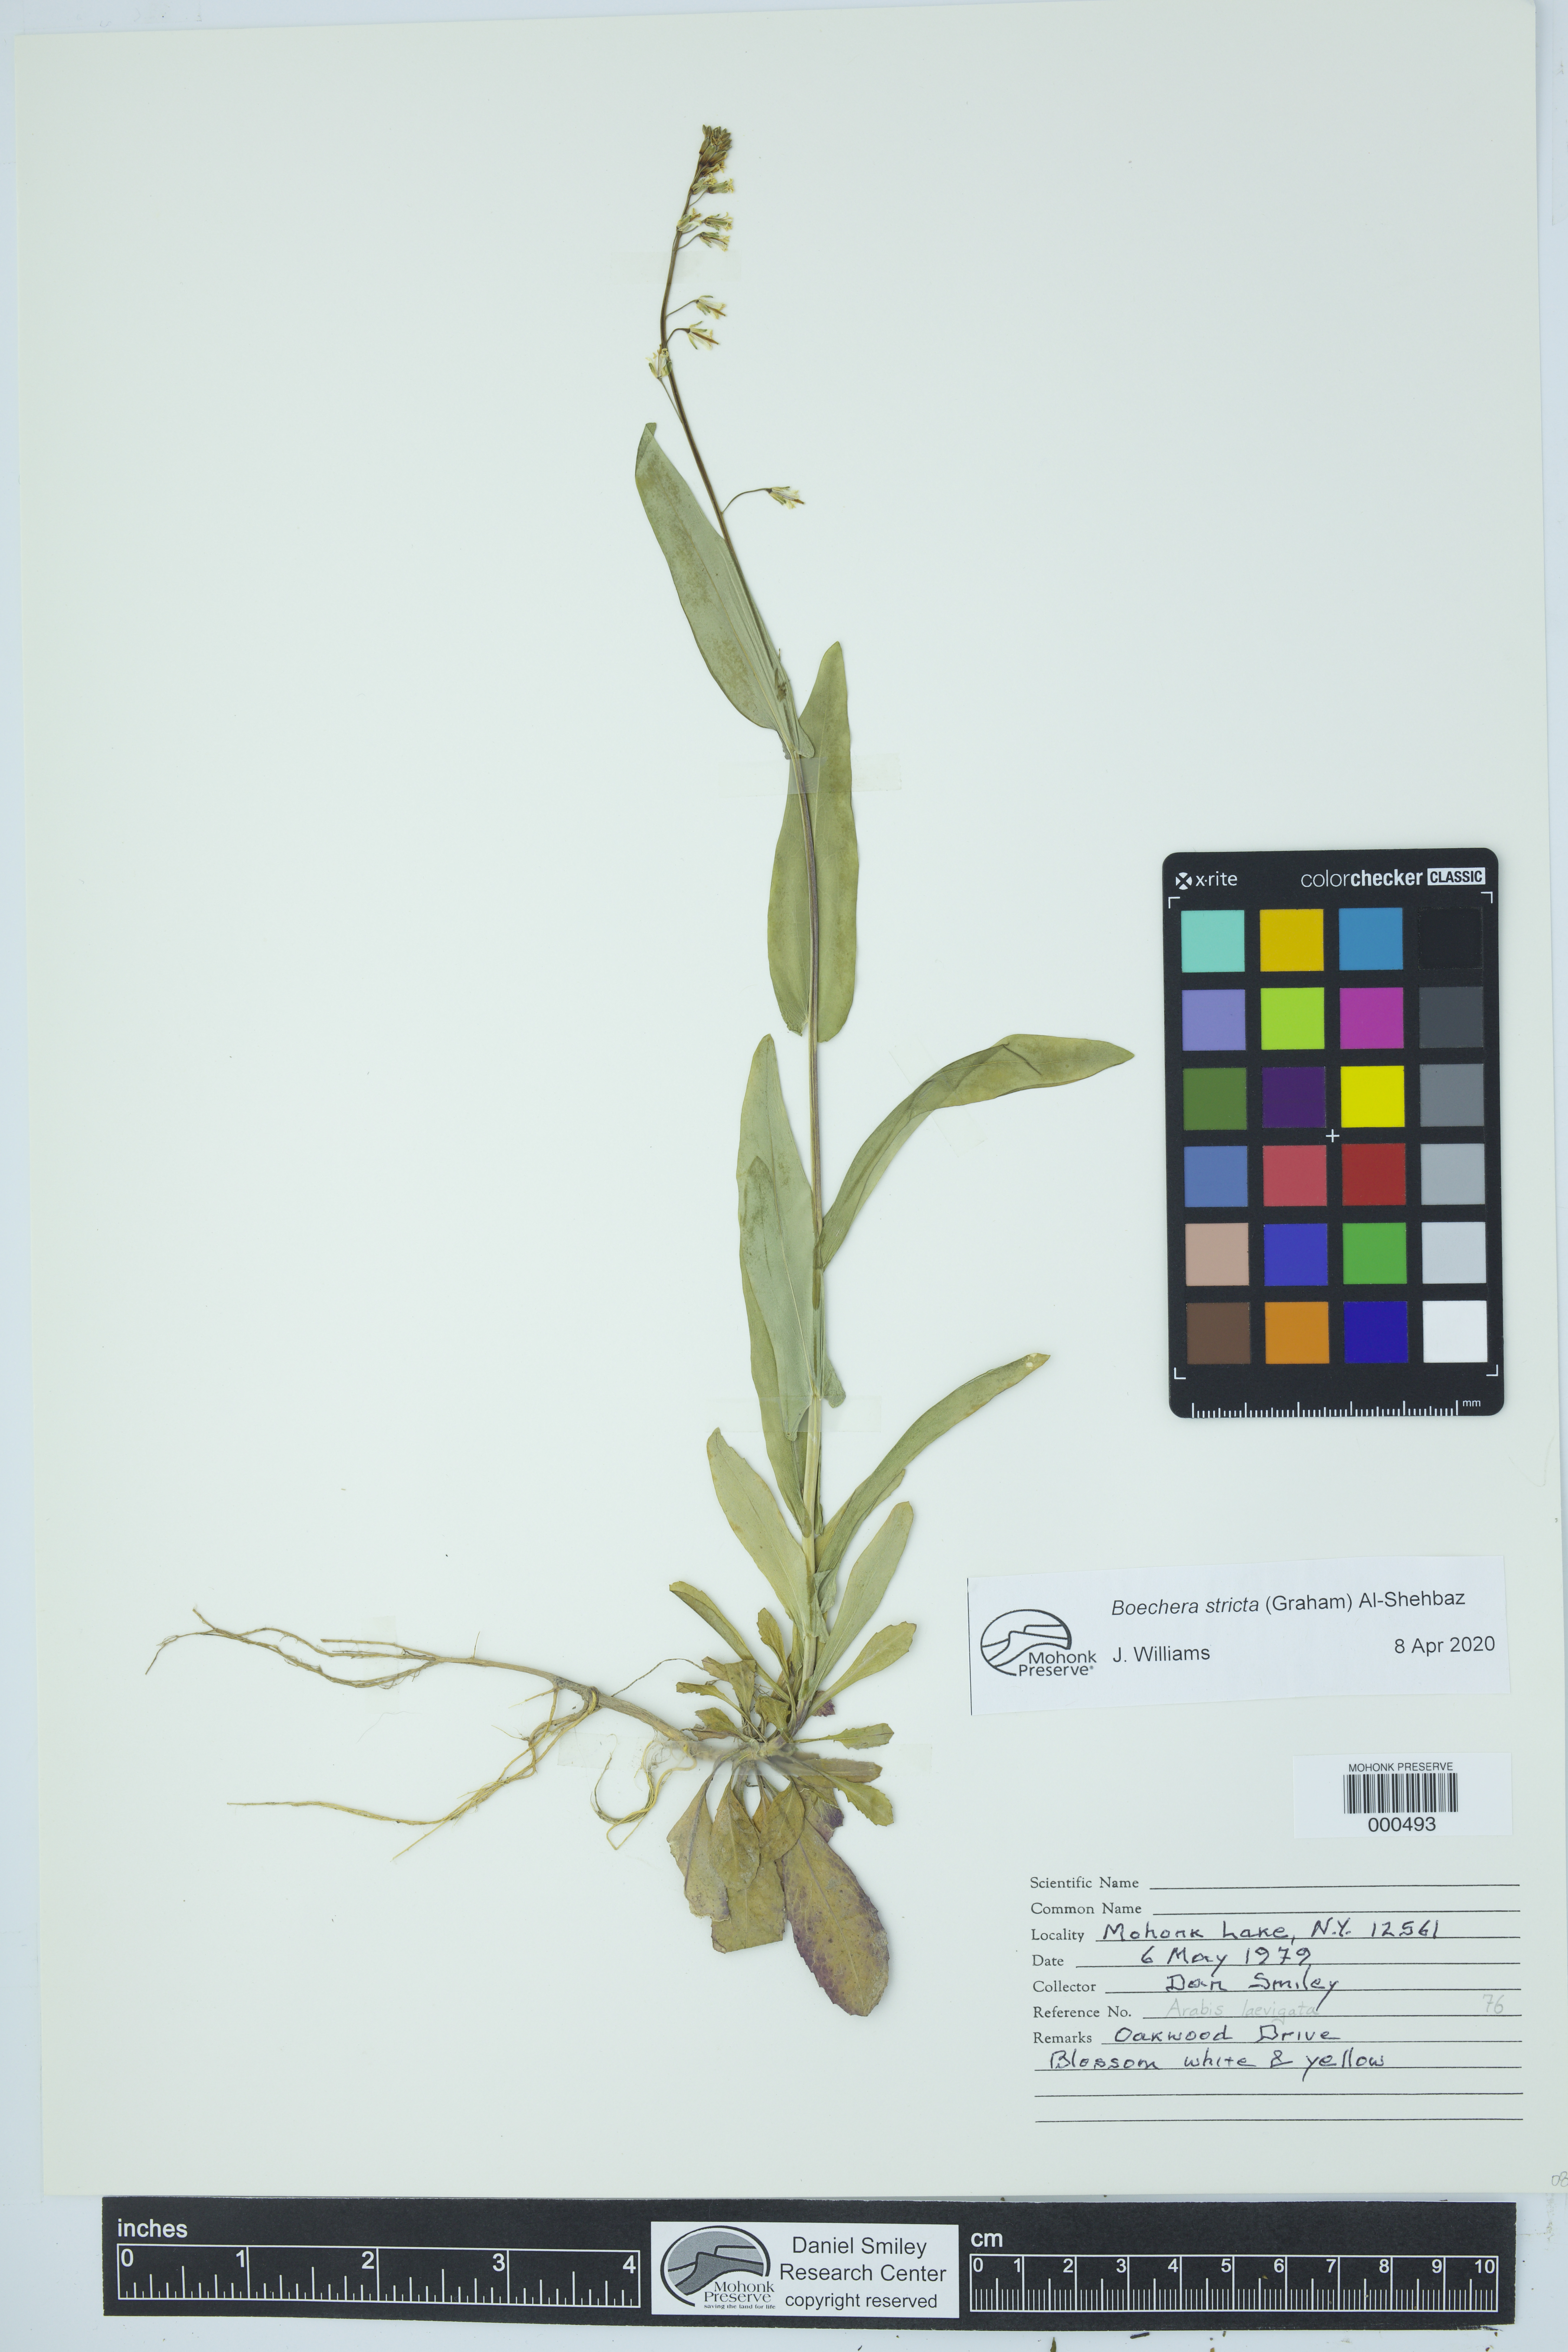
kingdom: Plantae
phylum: Tracheophyta
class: Magnoliopsida
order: Brassicales
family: Brassicaceae
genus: Boechera
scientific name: Boechera stricta
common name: Canadian rockcress
